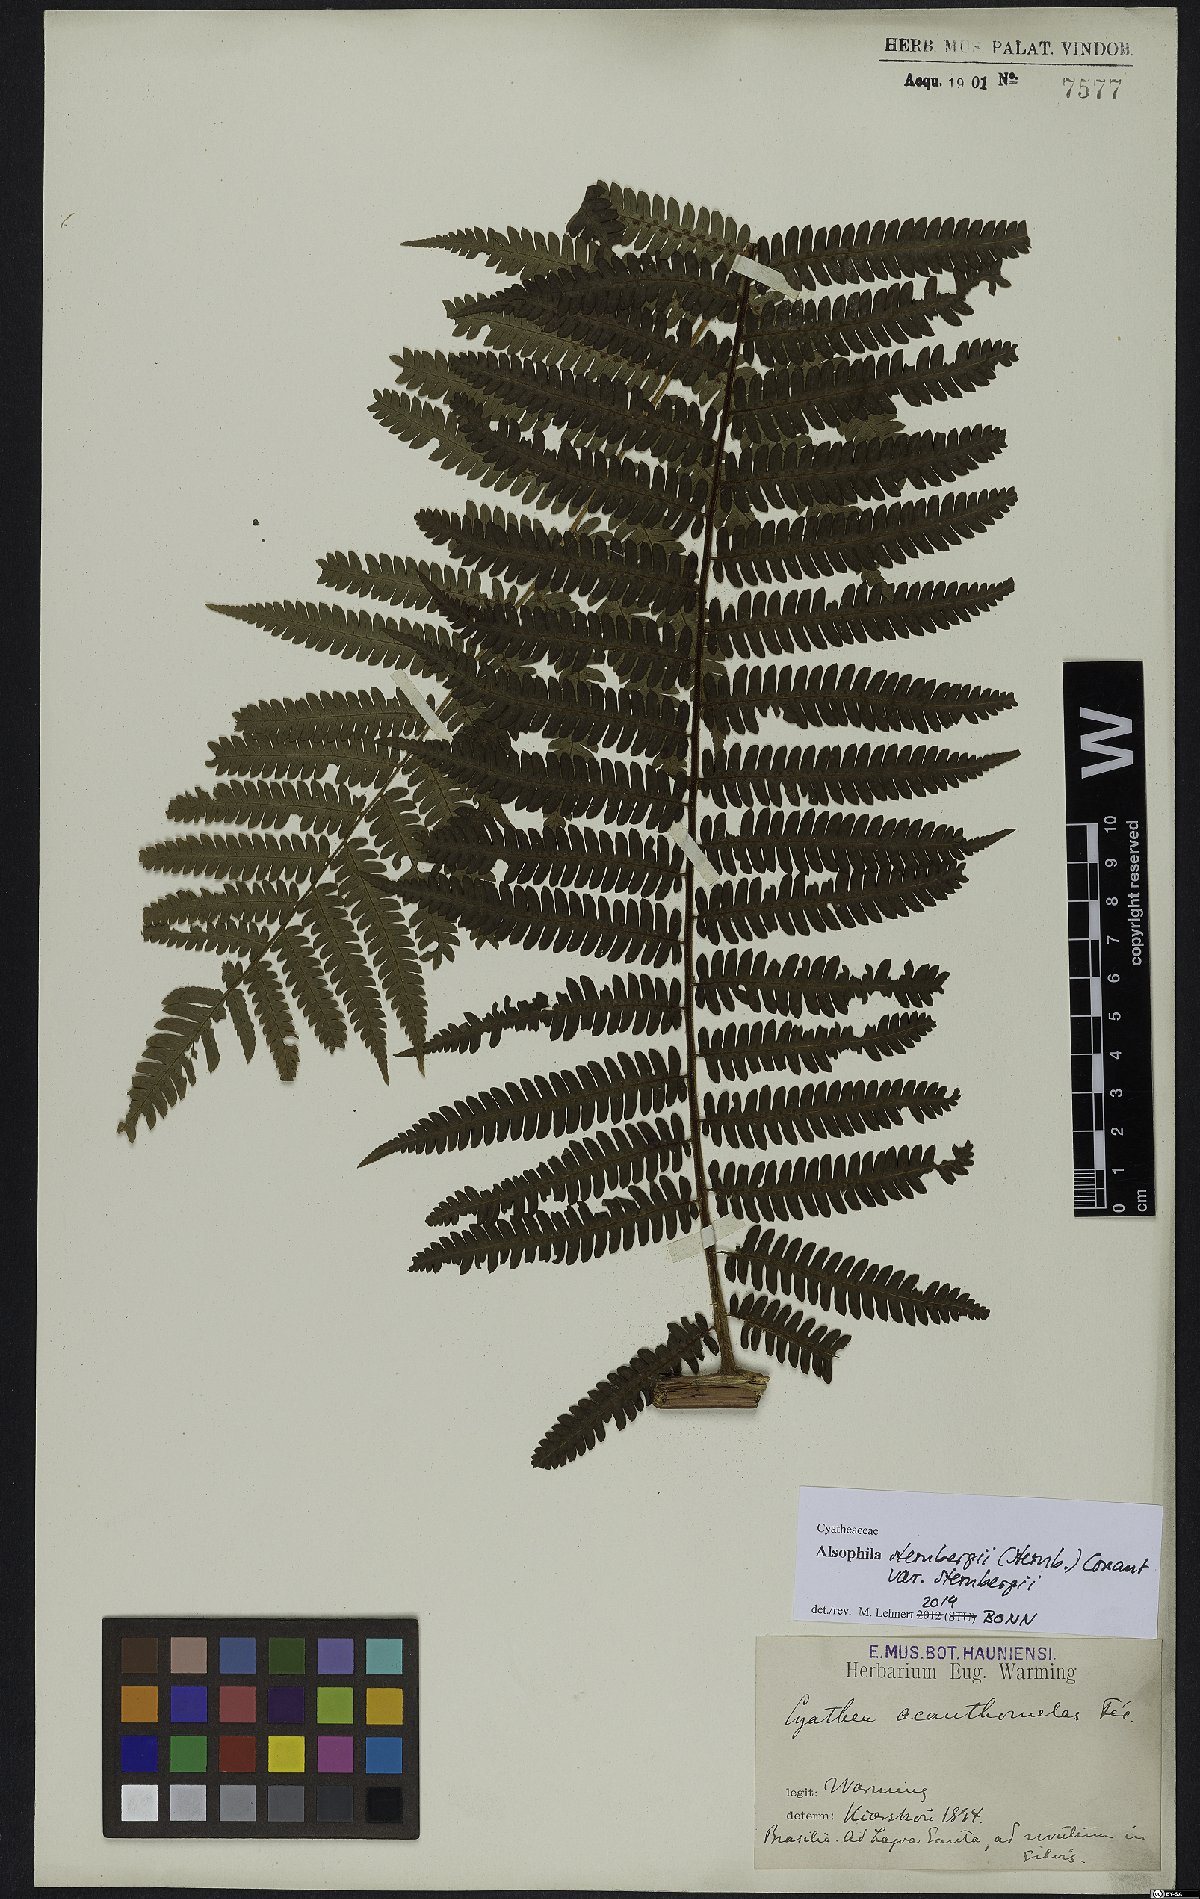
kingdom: Plantae
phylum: Tracheophyta
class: Polypodiopsida
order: Cyatheales
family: Cyatheaceae
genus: Alsophila
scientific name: Alsophila sternbergii
